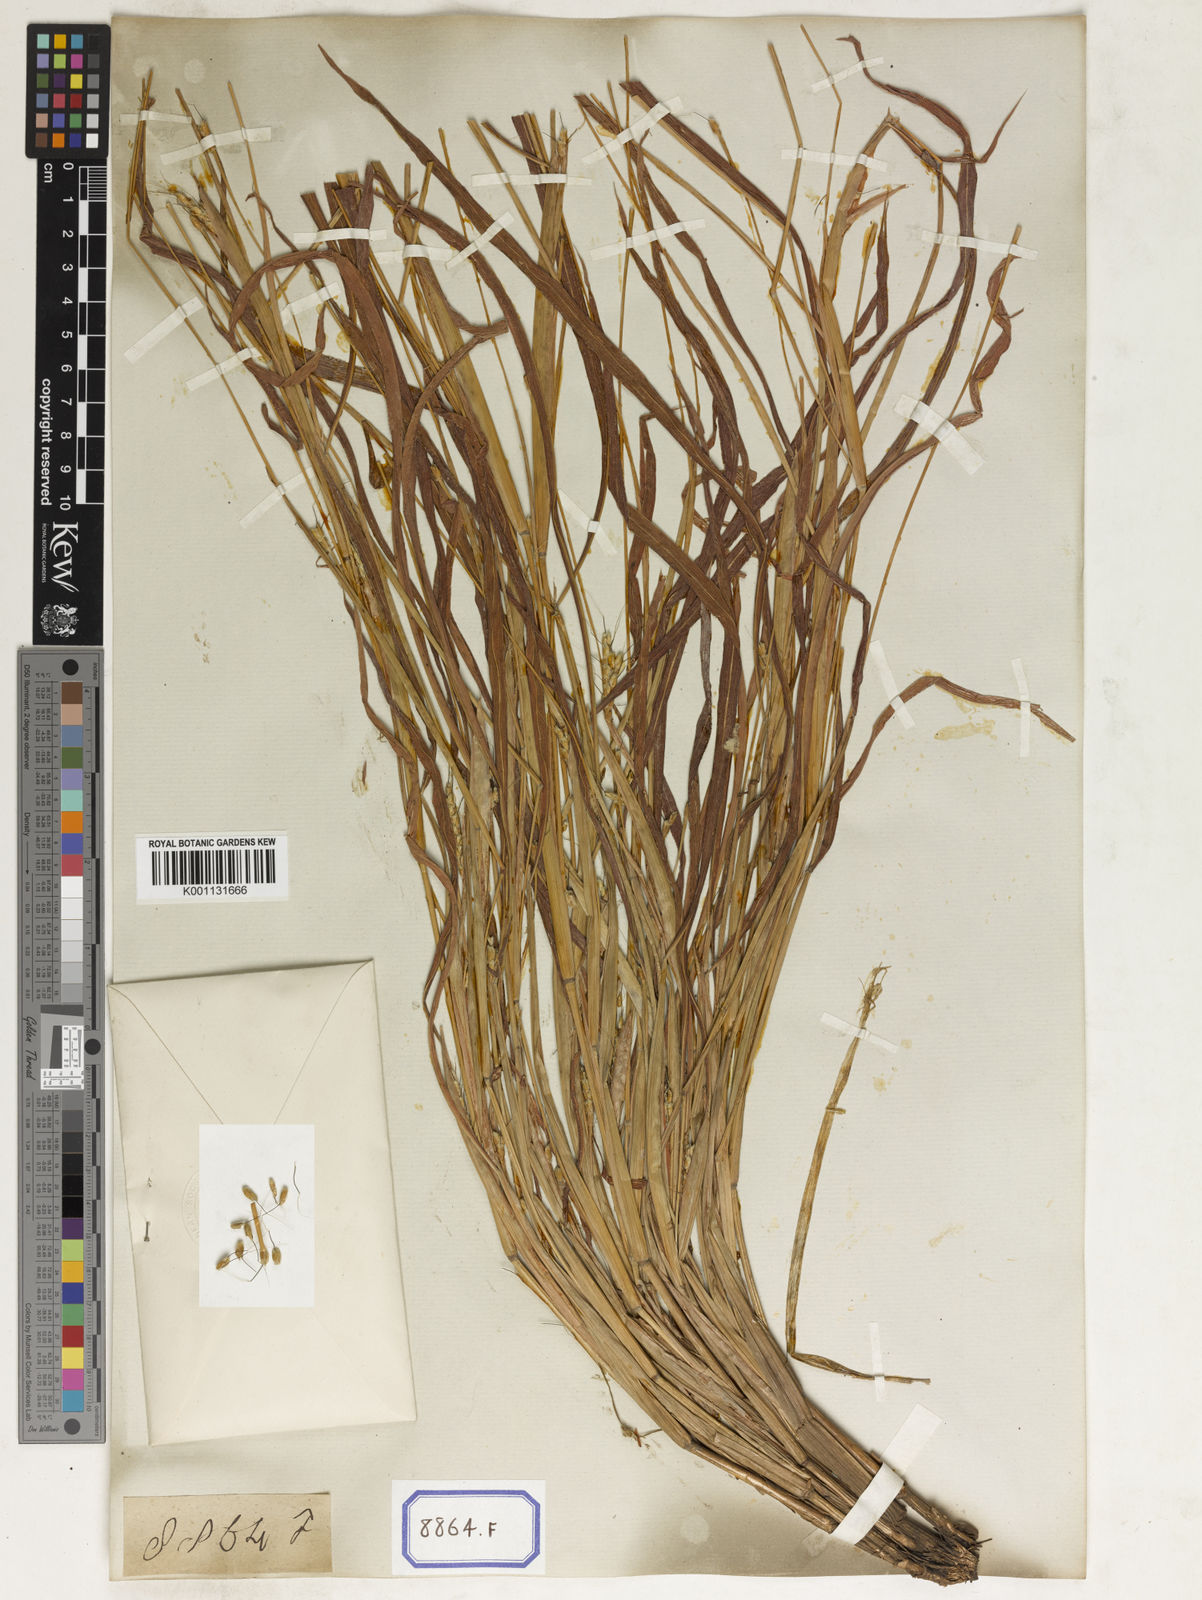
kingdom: Plantae
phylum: Tracheophyta
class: Liliopsida
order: Poales
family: Poaceae
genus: Ischaemum
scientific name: Ischaemum rugosum
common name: Saramatta grass
